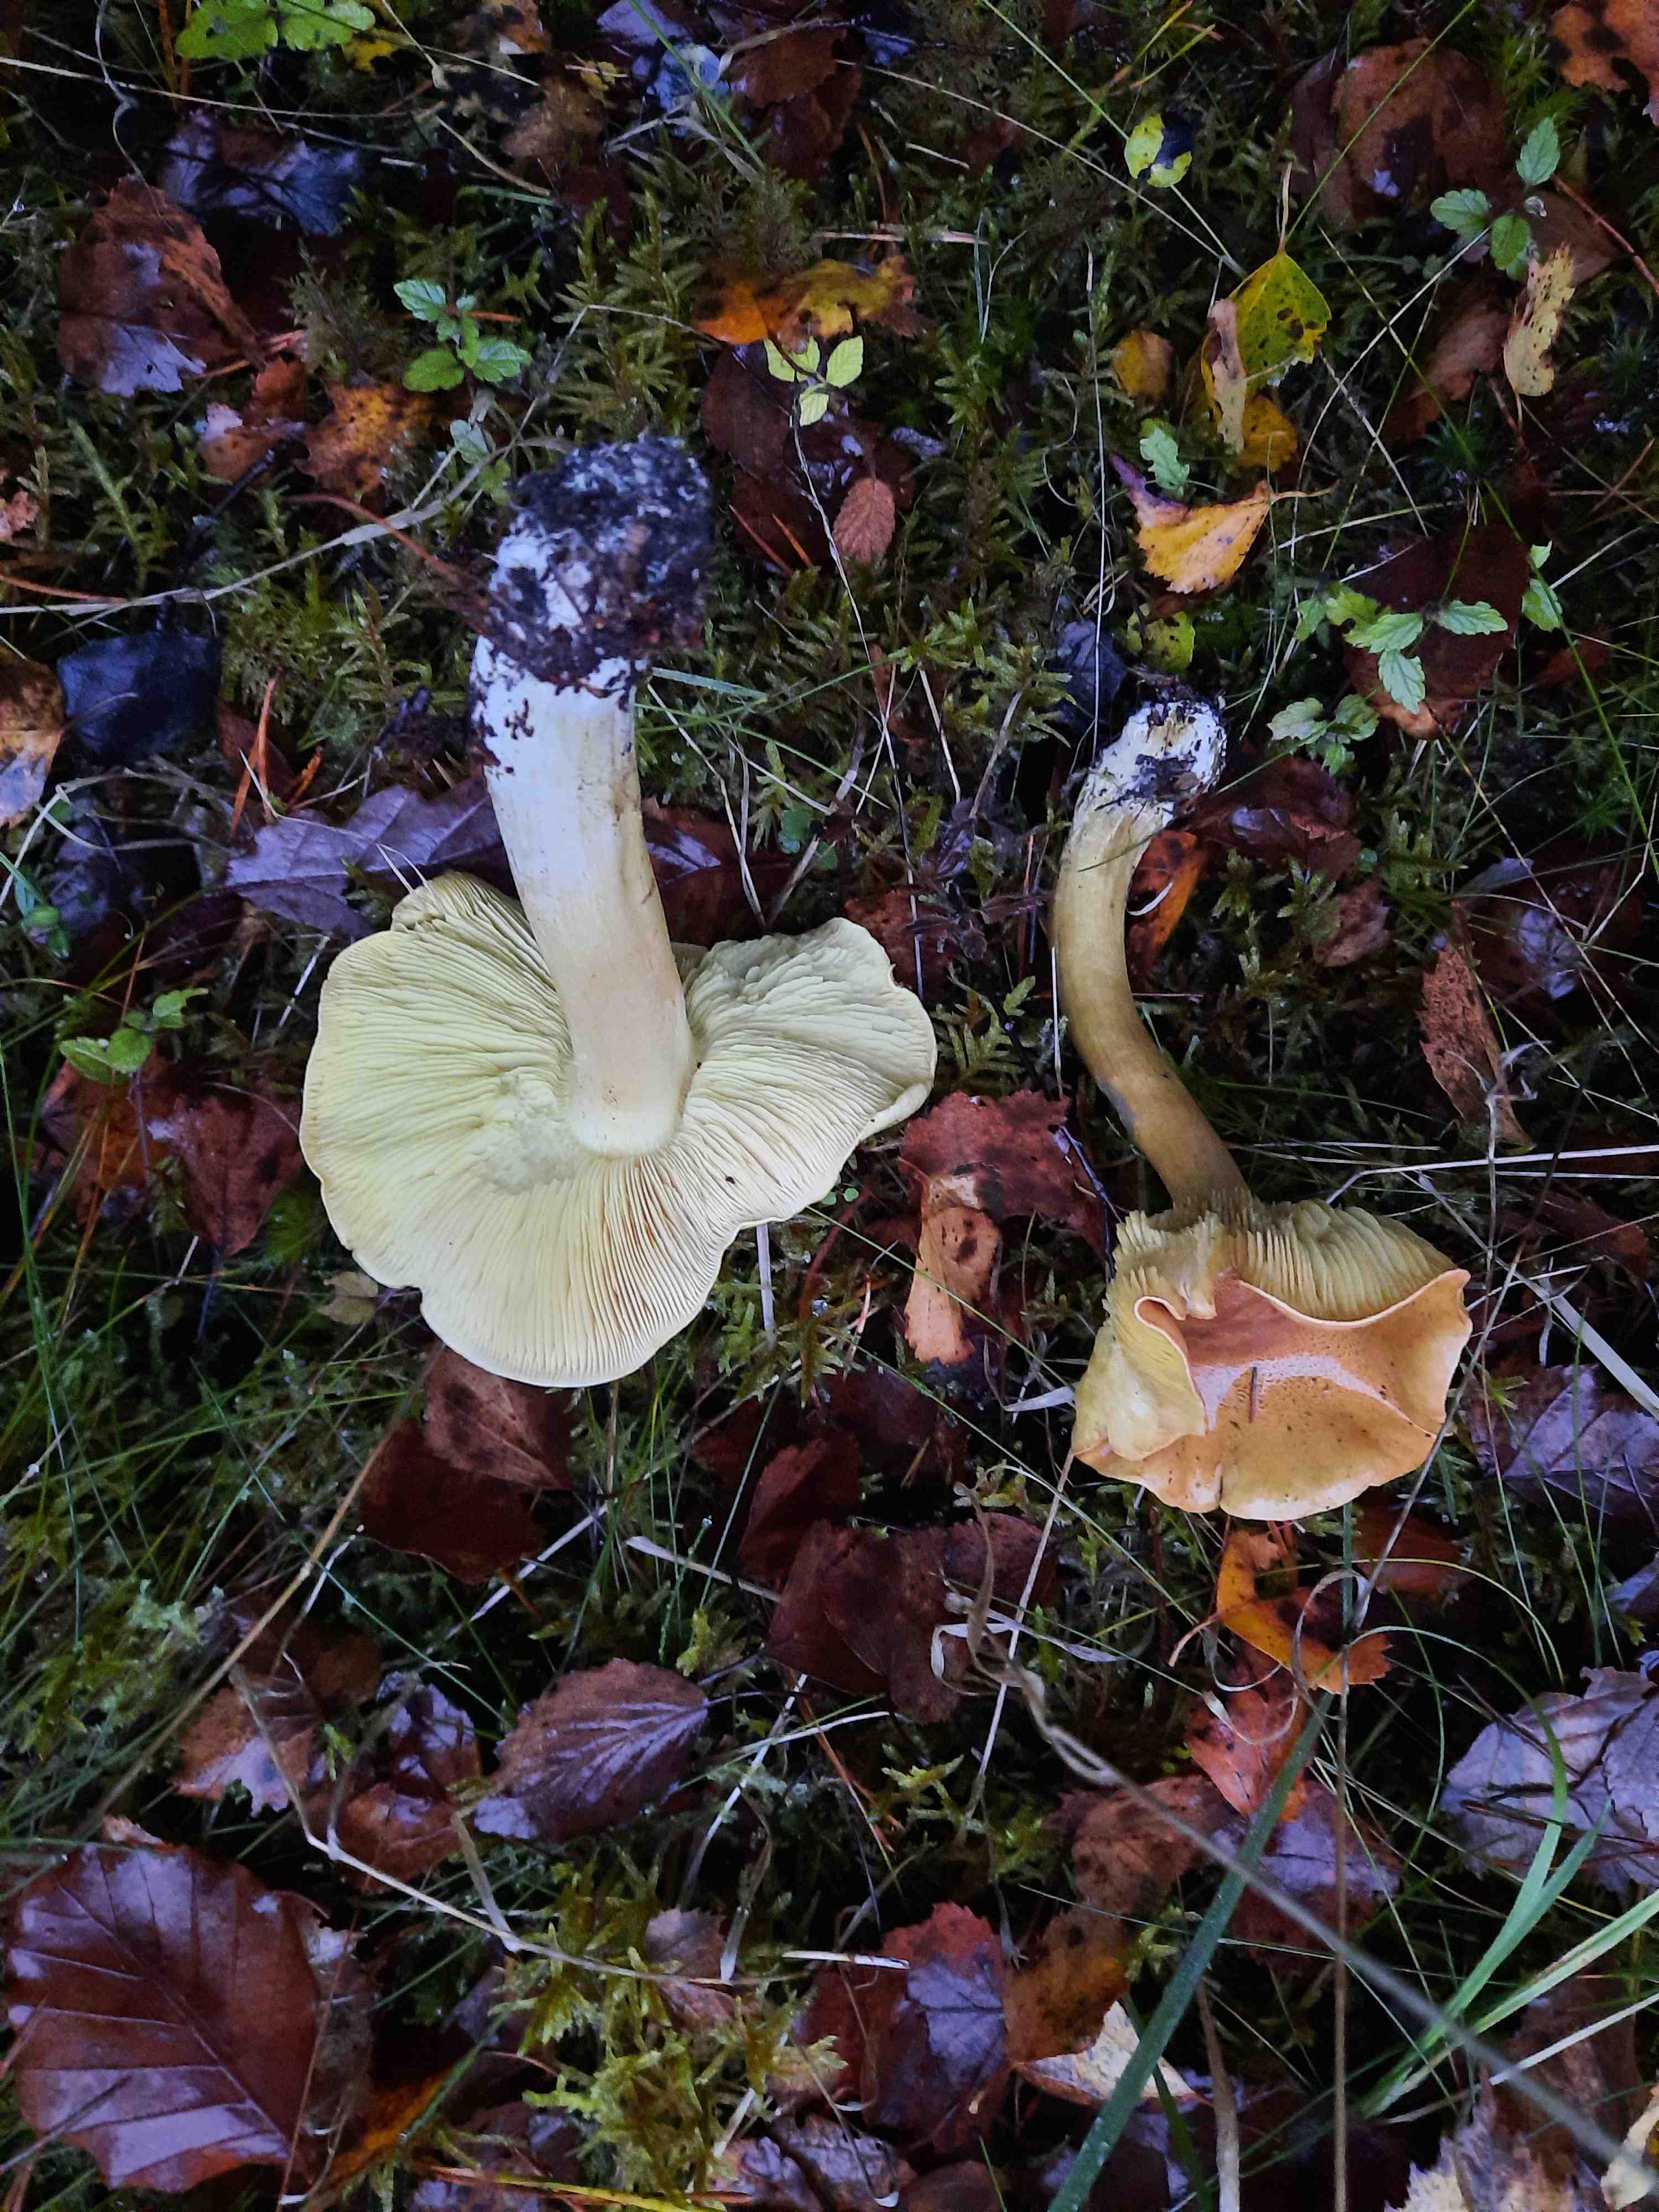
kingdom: Fungi
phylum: Basidiomycota
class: Agaricomycetes
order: Agaricales
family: Tricholomataceae
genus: Tricholoma
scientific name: Tricholoma equestre
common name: ægte ridderhat
